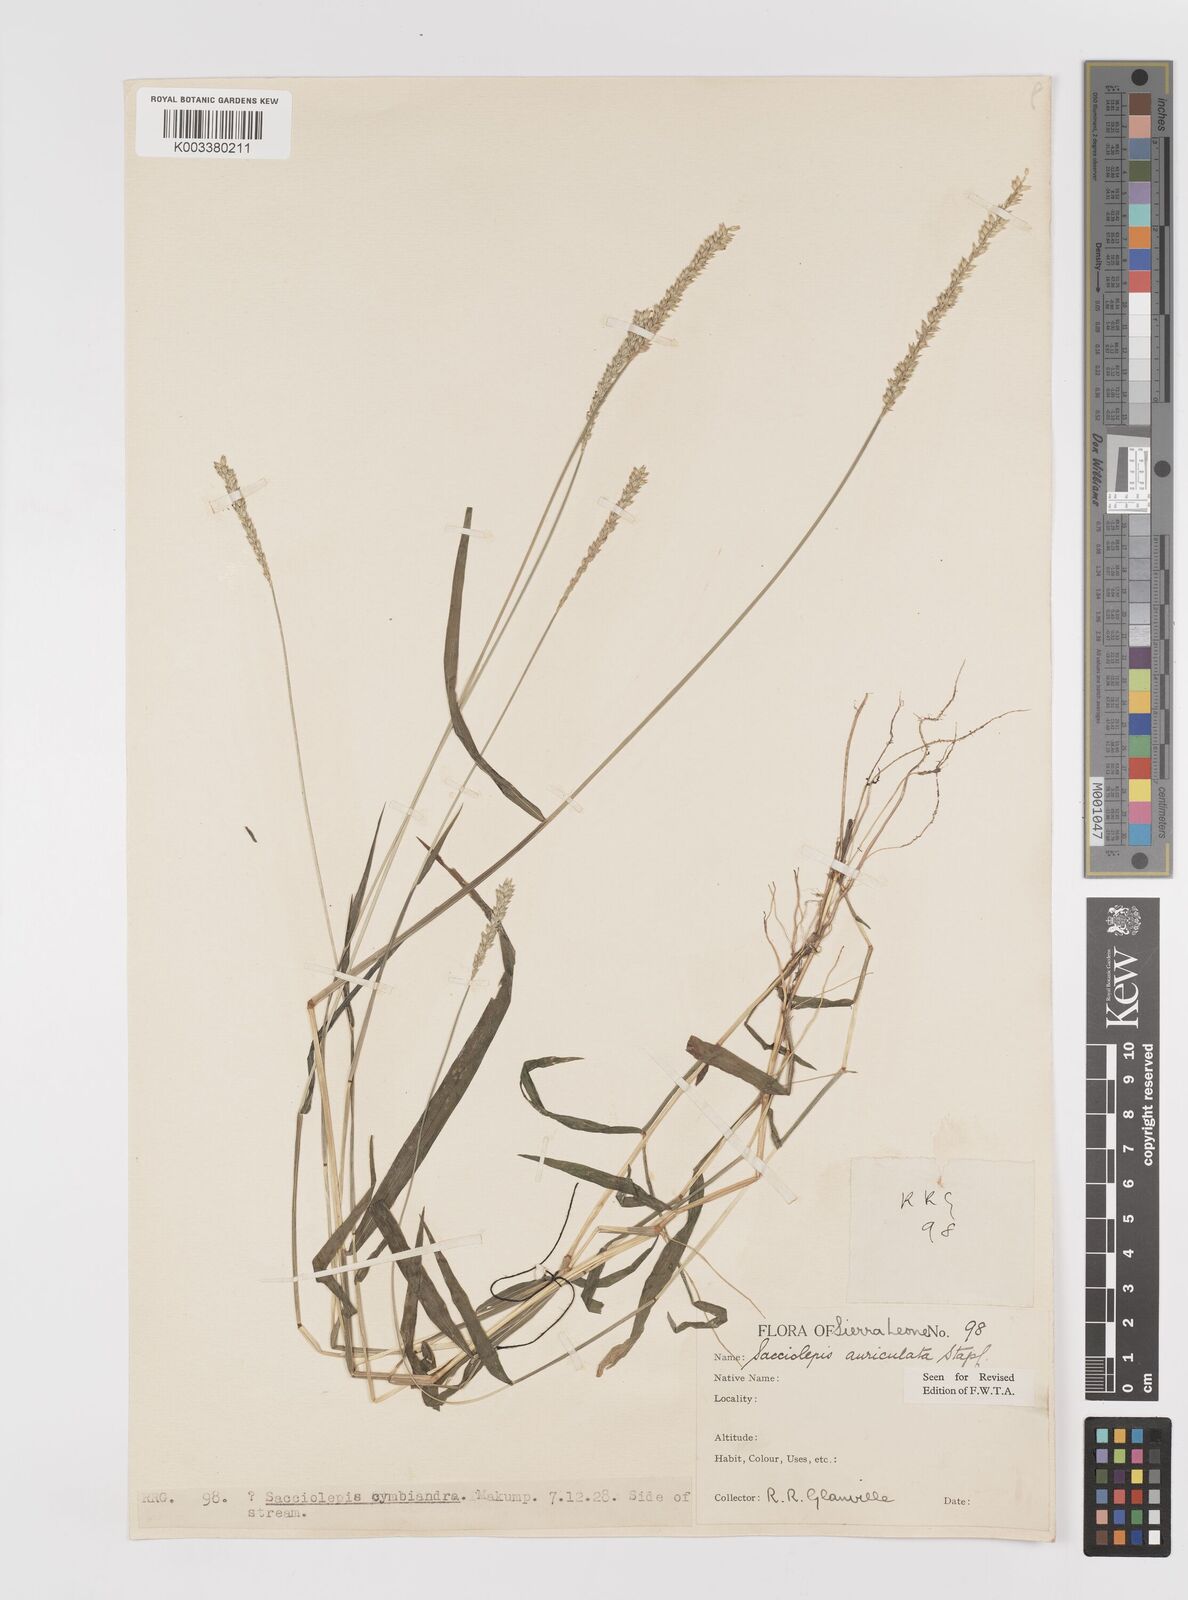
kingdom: Plantae
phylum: Tracheophyta
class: Liliopsida
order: Poales
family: Poaceae
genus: Sacciolepis
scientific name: Sacciolepis indica
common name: Glenwoodgrass
